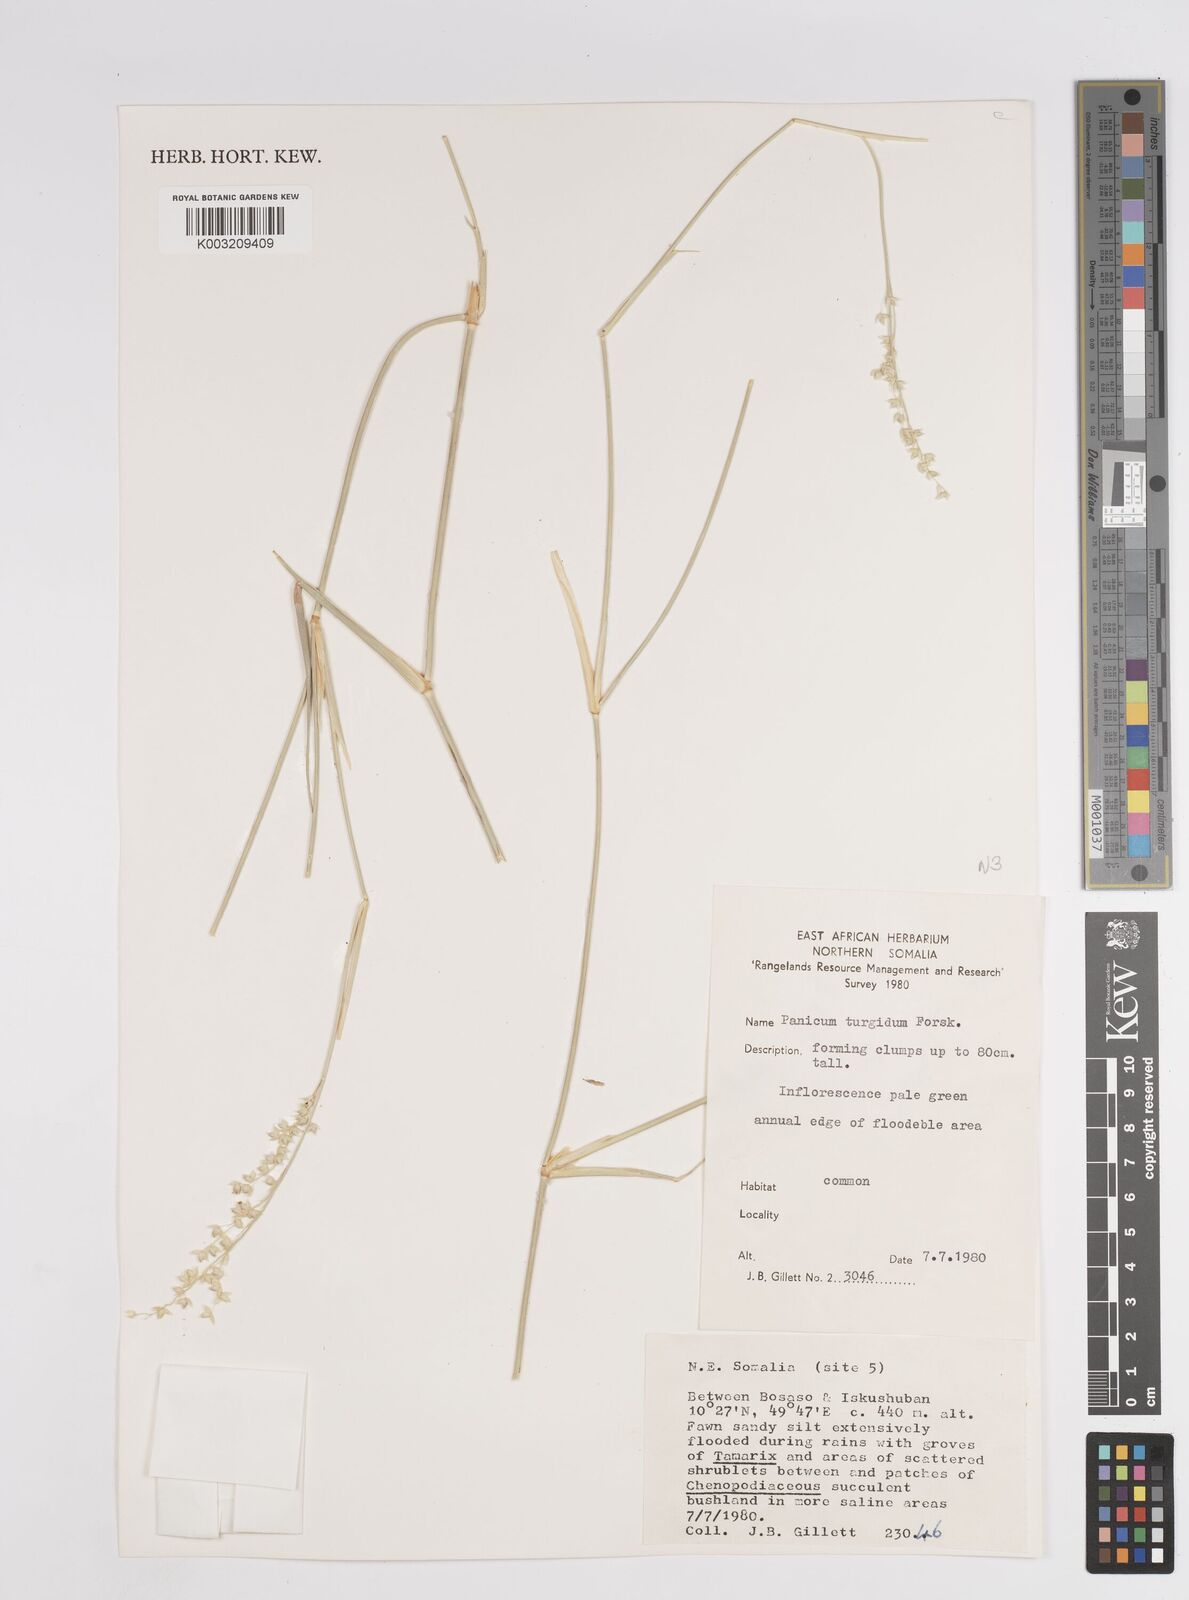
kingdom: Plantae
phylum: Tracheophyta
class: Liliopsida
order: Poales
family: Poaceae
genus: Panicum
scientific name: Panicum turgidum
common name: Desert grass
